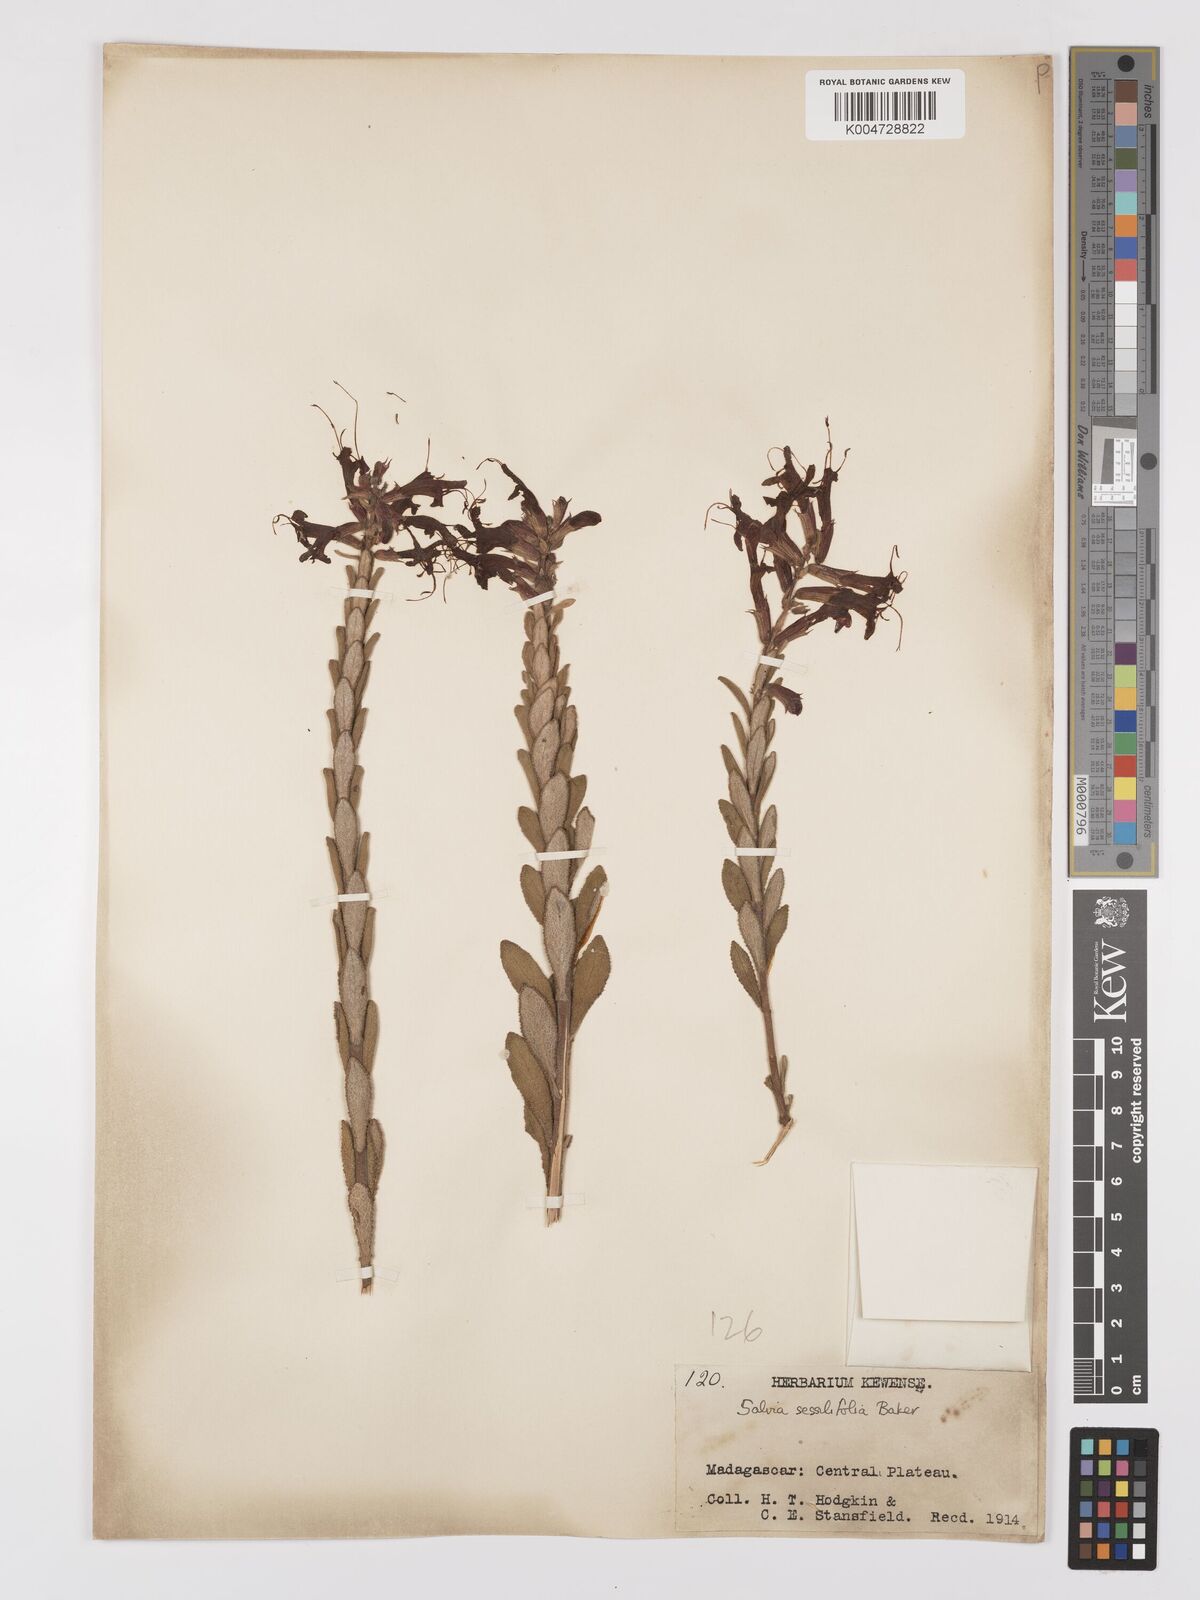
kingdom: Plantae
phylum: Tracheophyta
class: Magnoliopsida
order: Lamiales
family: Lamiaceae
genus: Salvia
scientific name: Salvia sessilifolia
